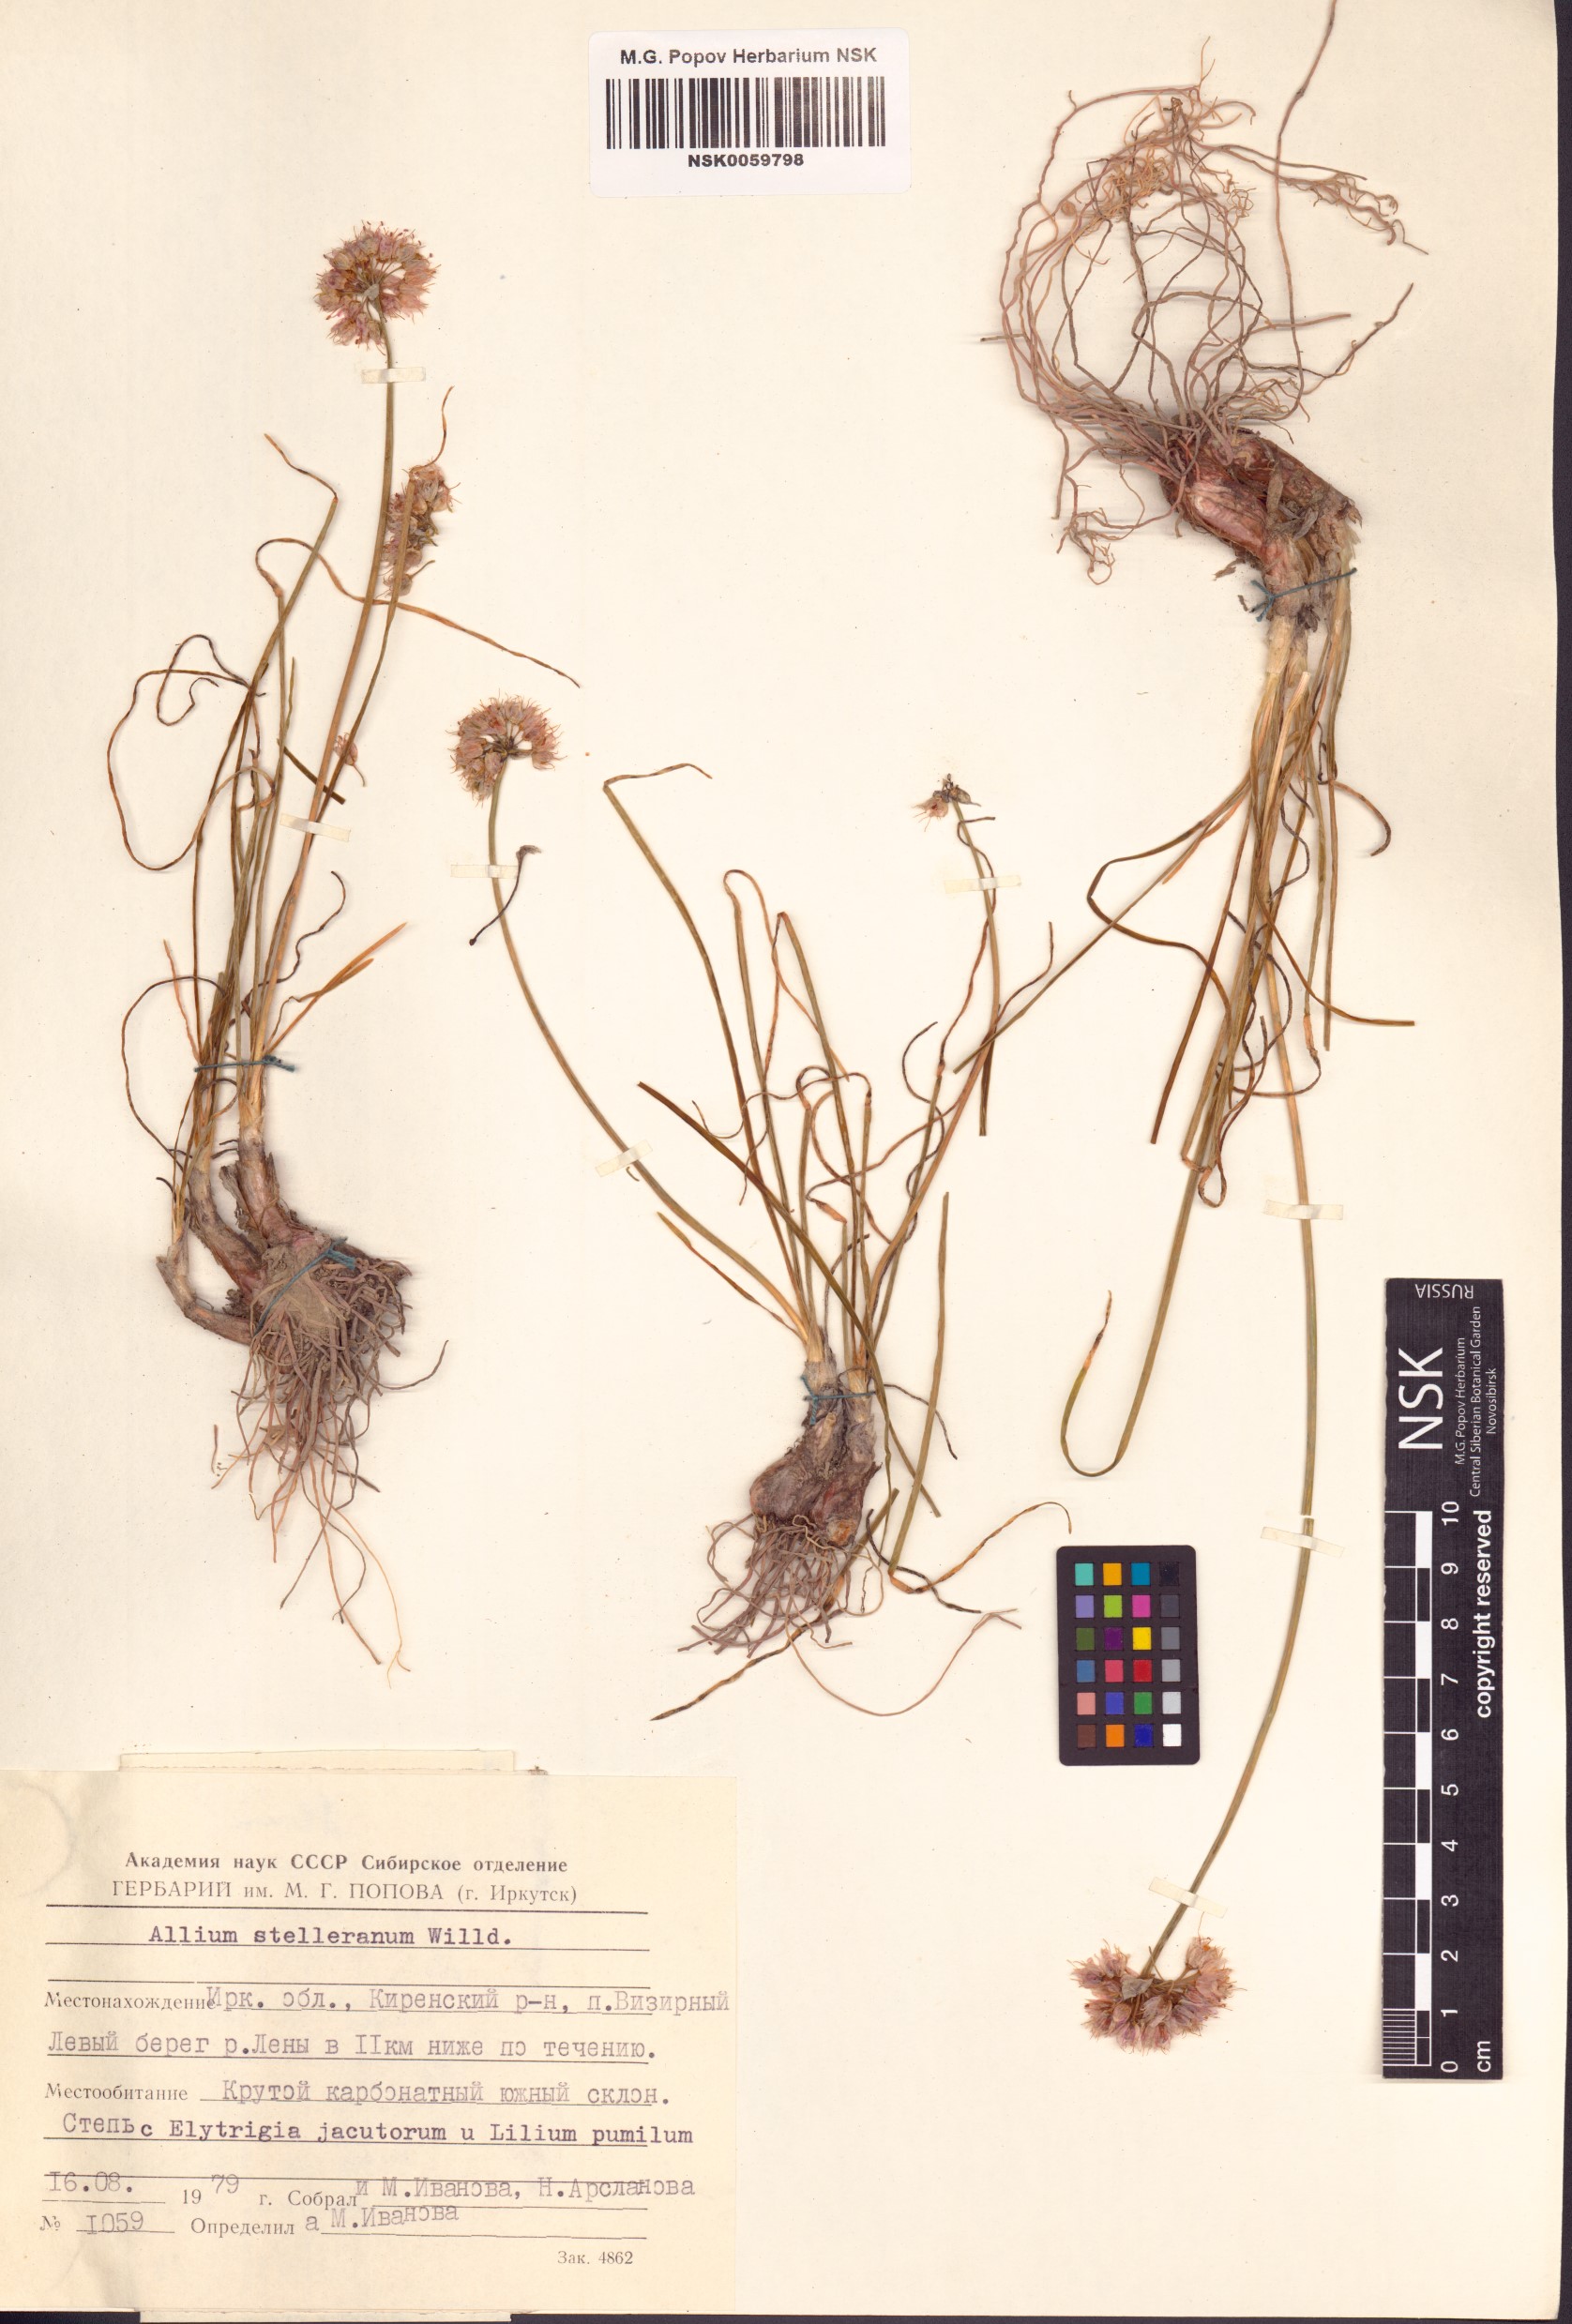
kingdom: Plantae
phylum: Tracheophyta
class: Liliopsida
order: Asparagales
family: Amaryllidaceae
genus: Allium
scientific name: Allium stellerianum
